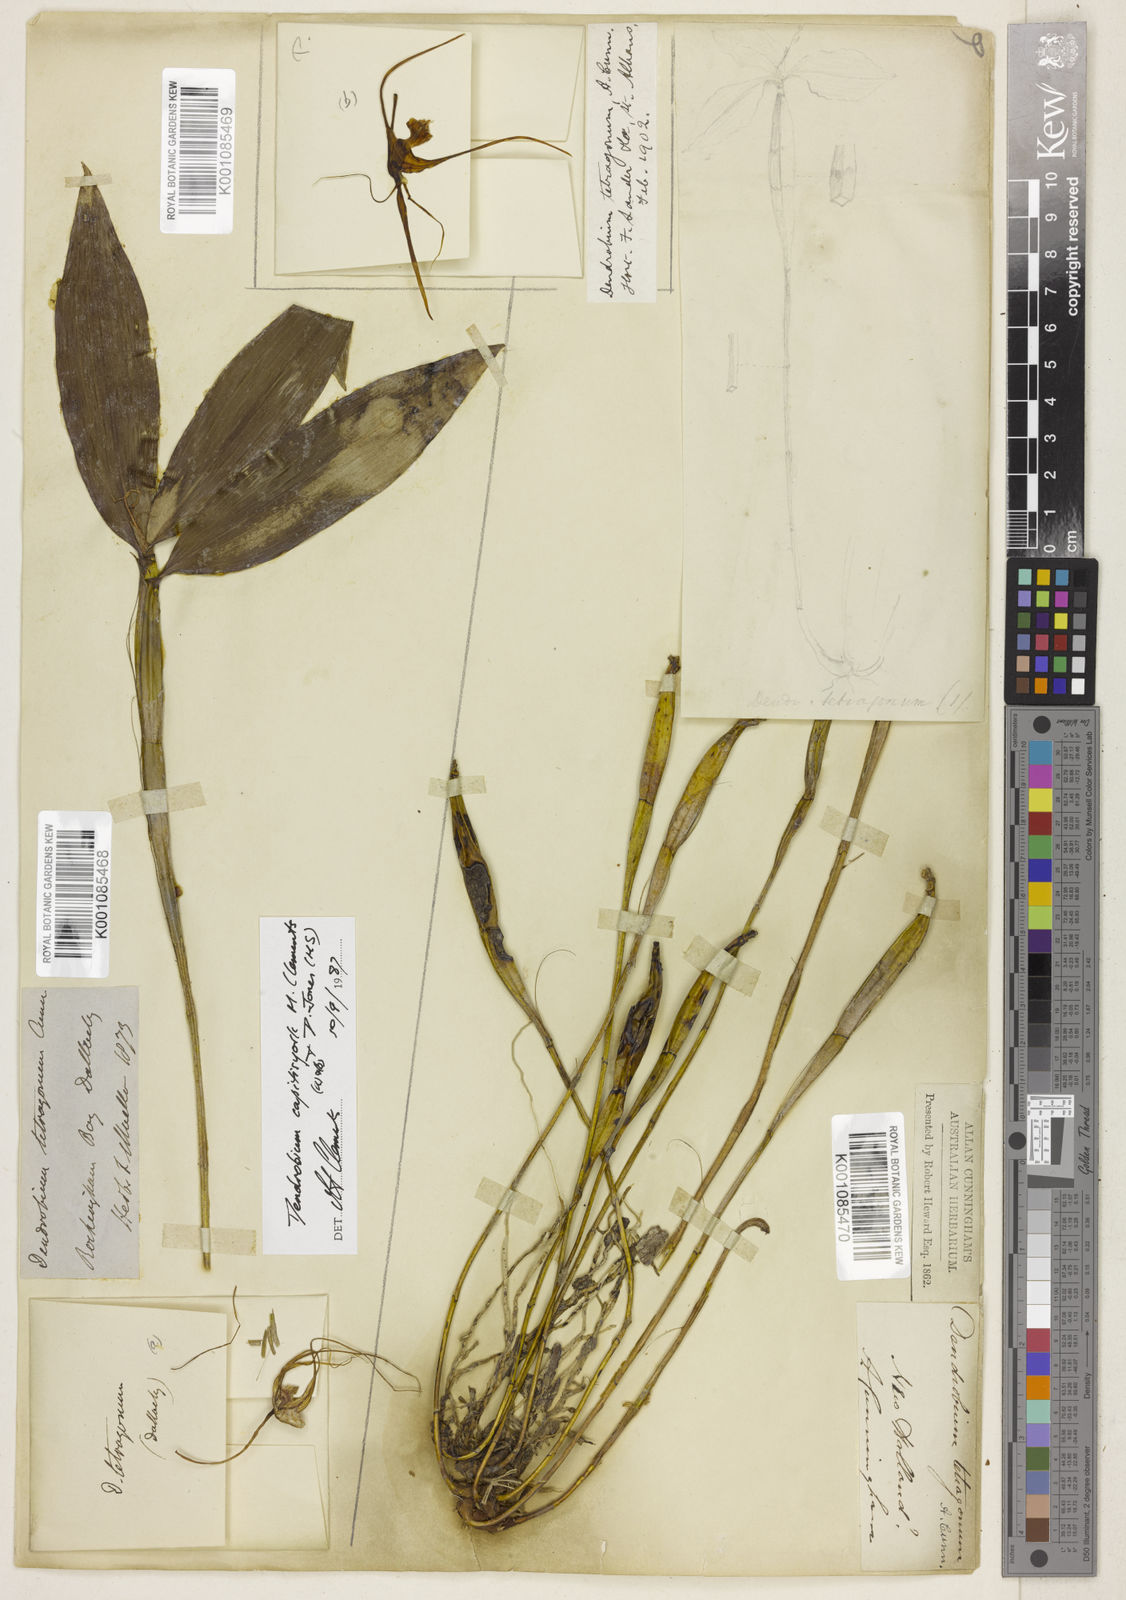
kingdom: Plantae
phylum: Tracheophyta
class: Liliopsida
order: Asparagales
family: Orchidaceae
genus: Dendrobium
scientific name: Dendrobium tetragonum
